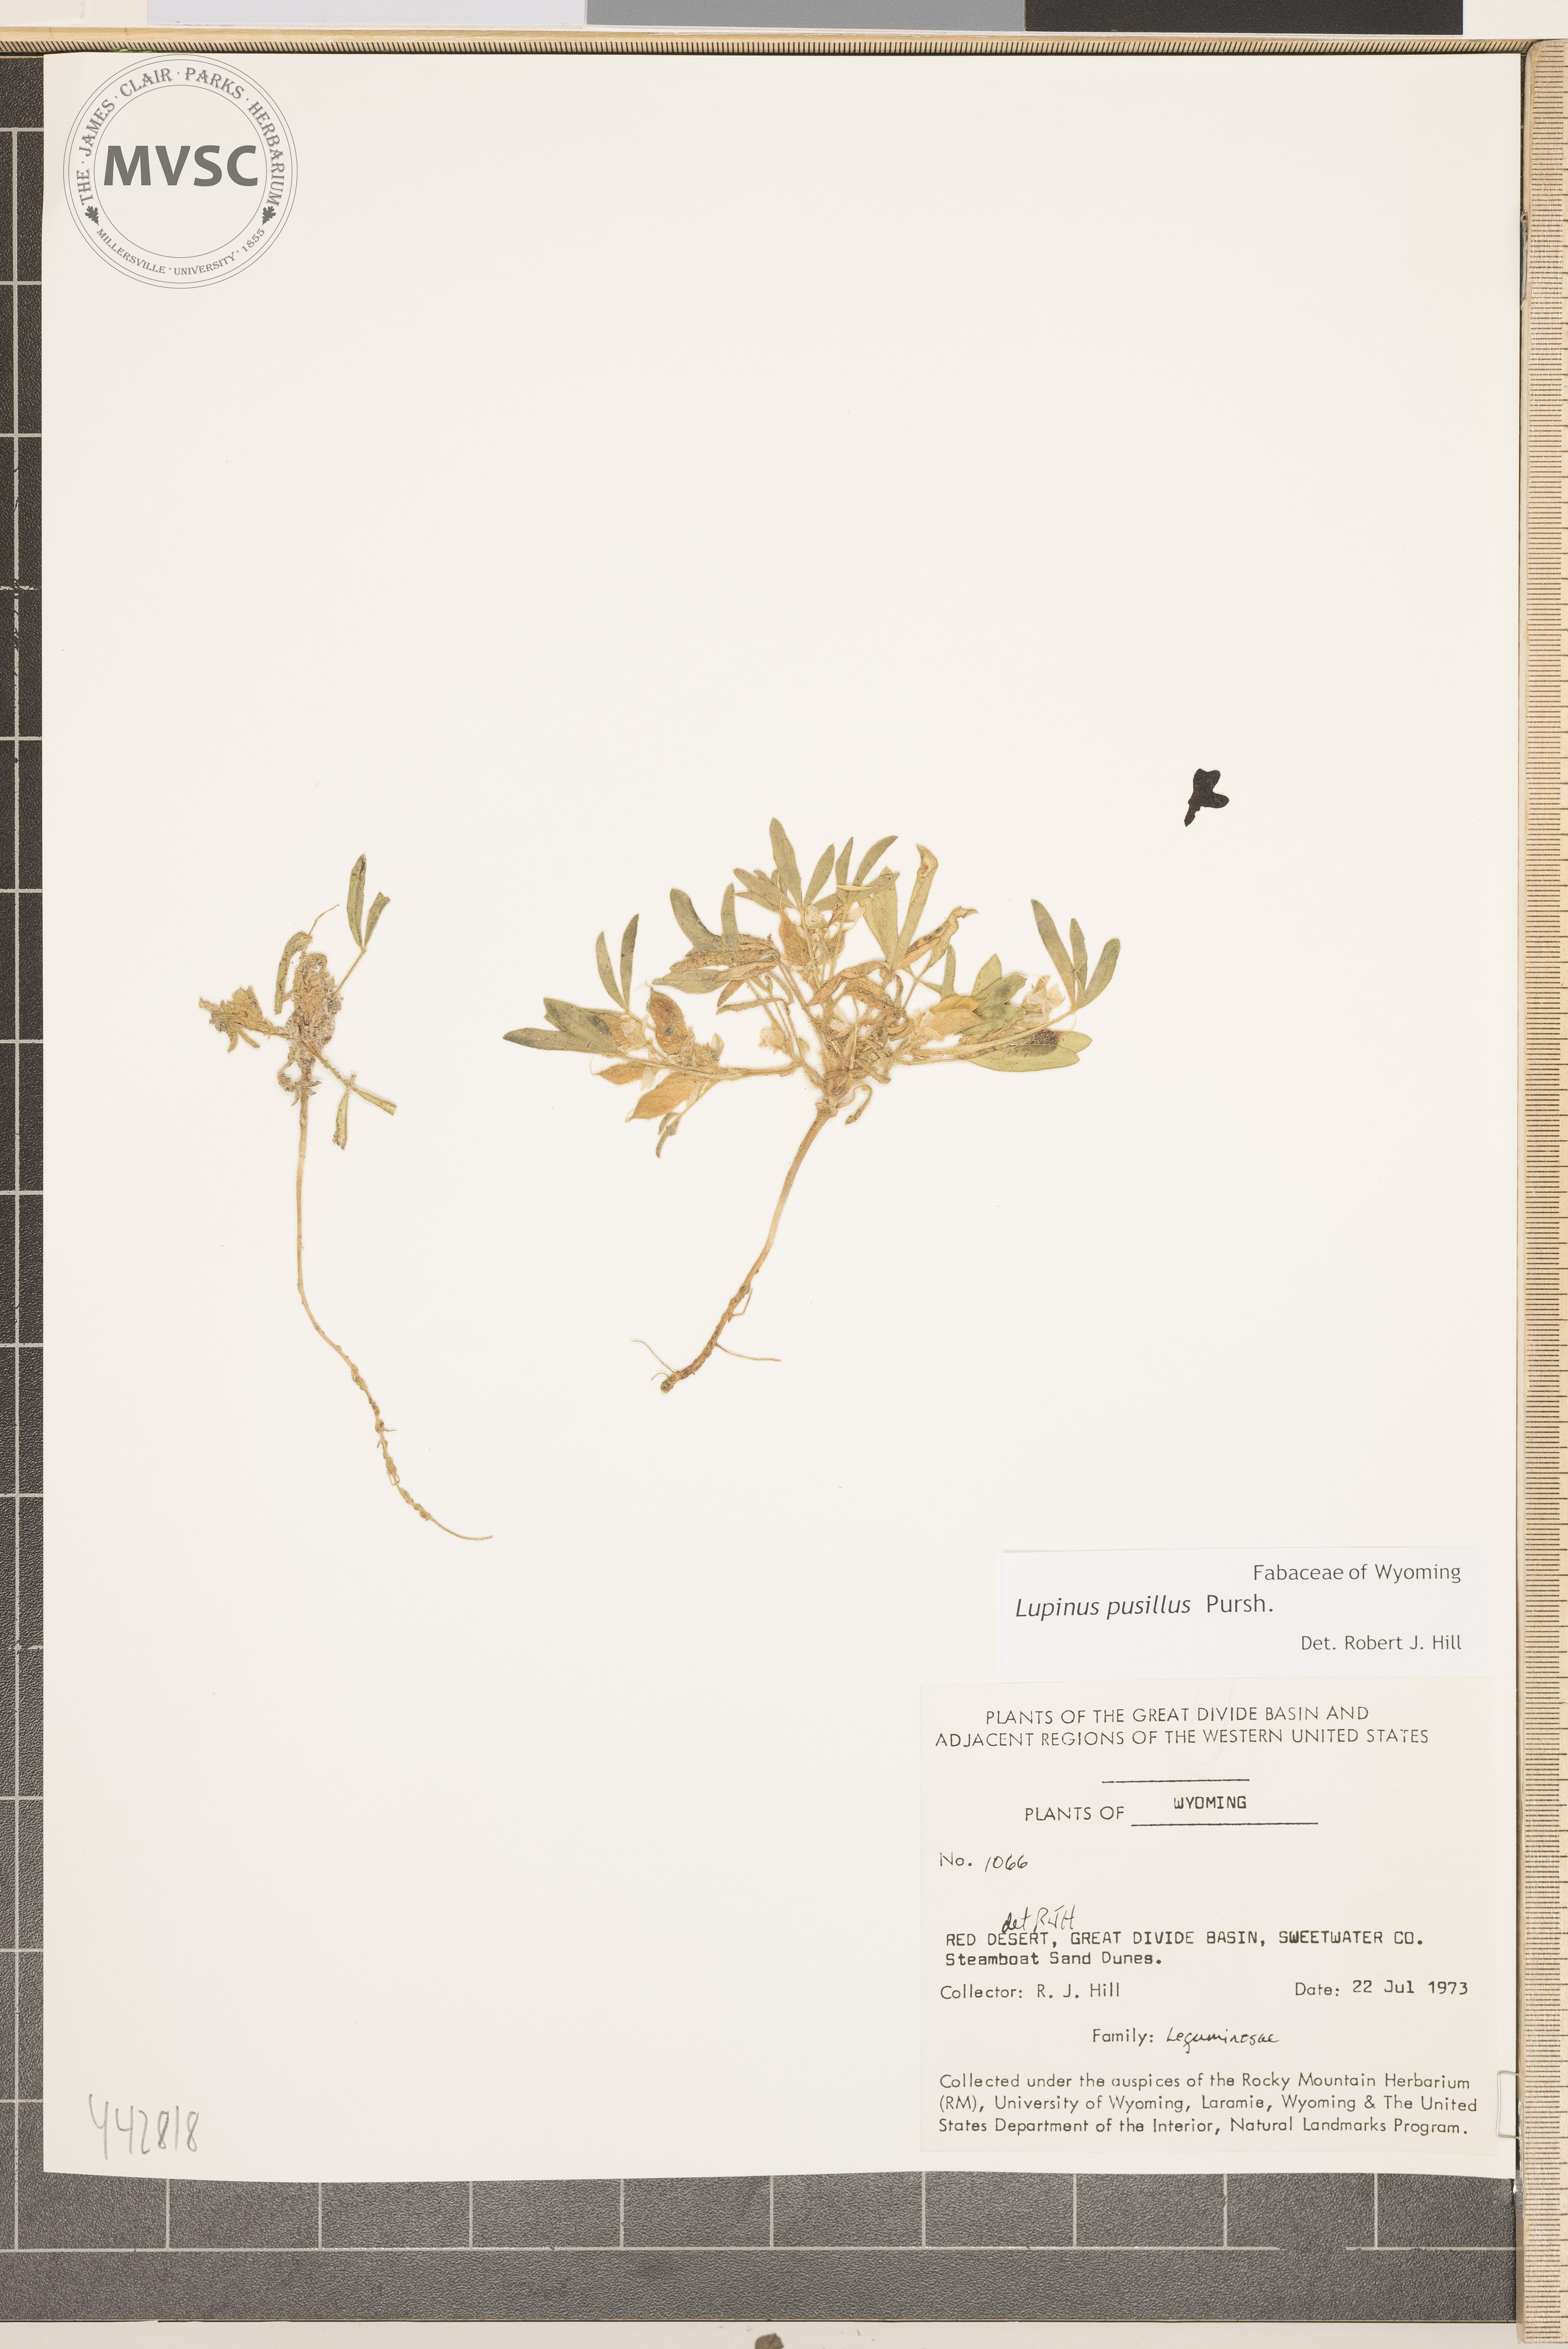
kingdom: Plantae
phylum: Tracheophyta
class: Magnoliopsida
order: Fabales
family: Fabaceae
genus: Lupinus
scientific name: Lupinus pusillus
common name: Low lupine
